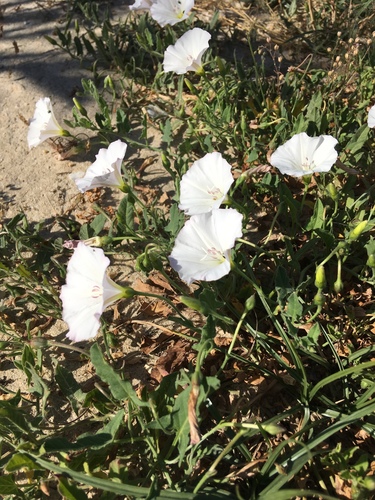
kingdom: Plantae
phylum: Tracheophyta
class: Magnoliopsida
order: Solanales
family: Convolvulaceae
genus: Convolvulus
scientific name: Convolvulus arvensis
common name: Field bindweed
